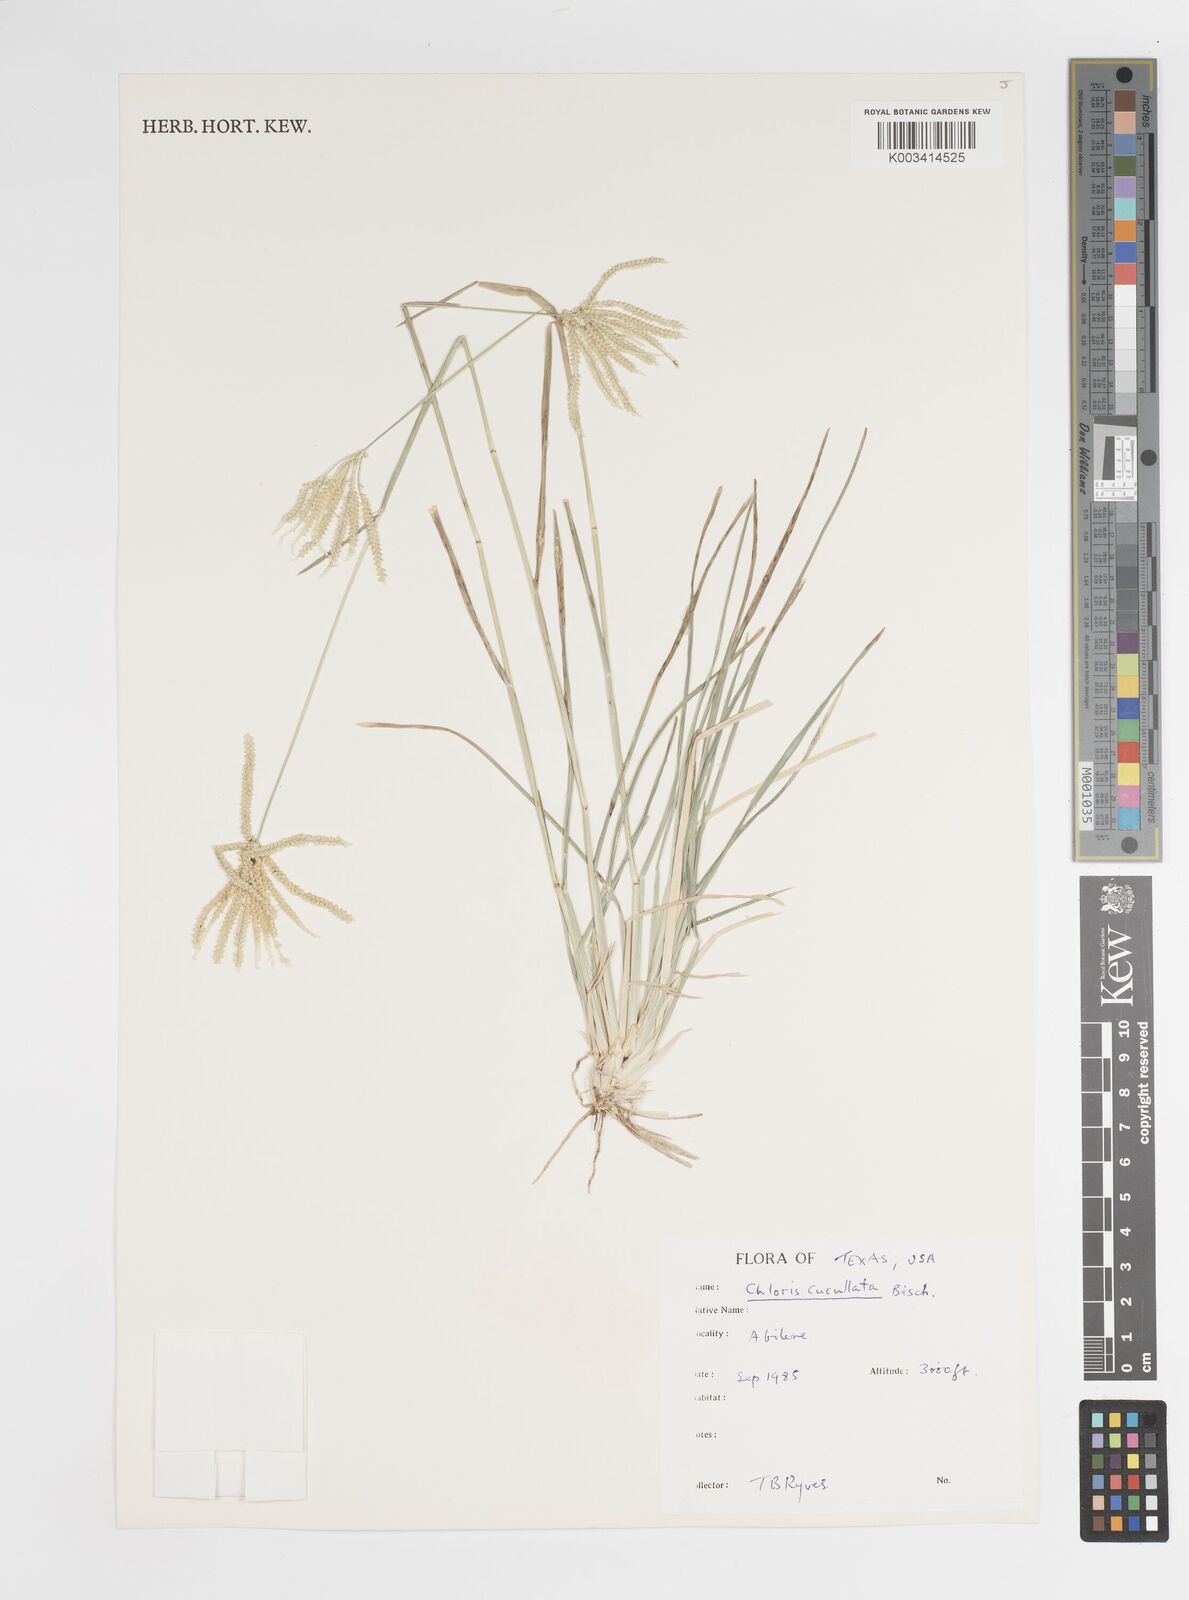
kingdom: Plantae
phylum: Tracheophyta
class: Liliopsida
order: Poales
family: Poaceae
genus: Chloris
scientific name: Chloris cucullata
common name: Hooded windmill grass
